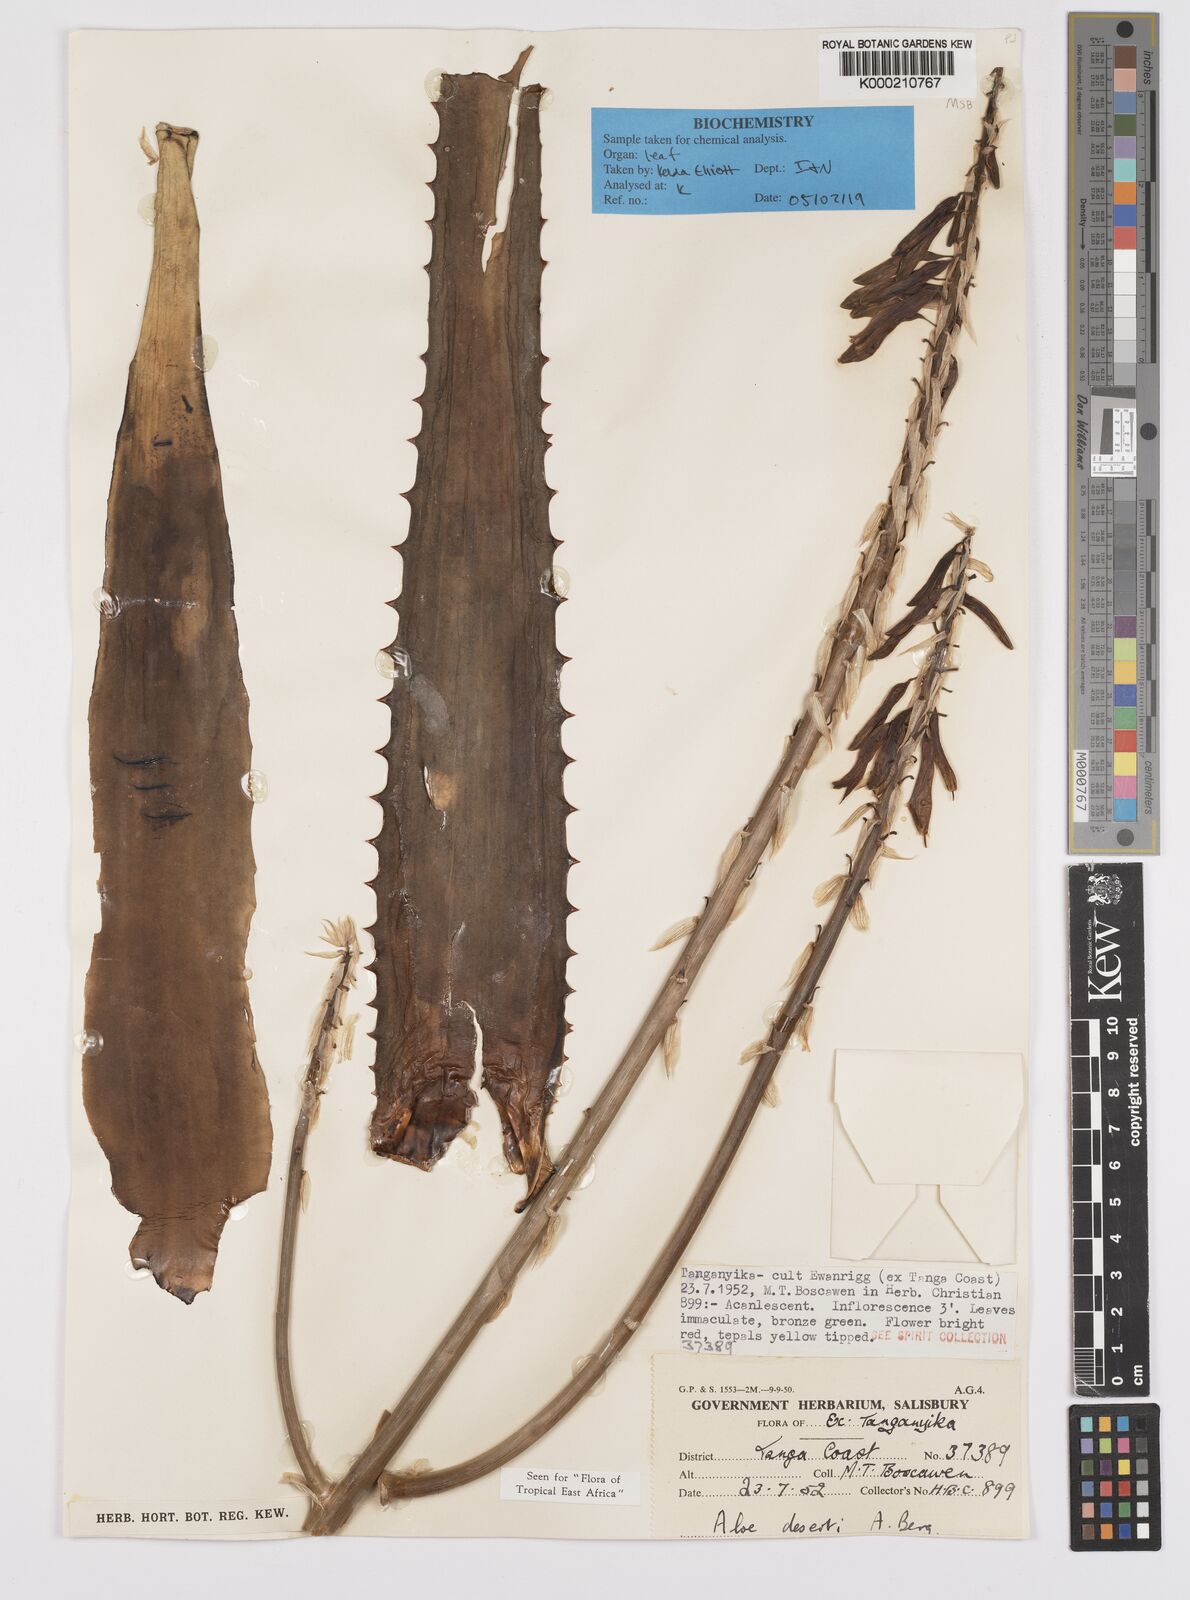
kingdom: Plantae
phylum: Tracheophyta
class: Liliopsida
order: Asparagales
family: Asphodelaceae
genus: Aloe
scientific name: Aloe deserti
